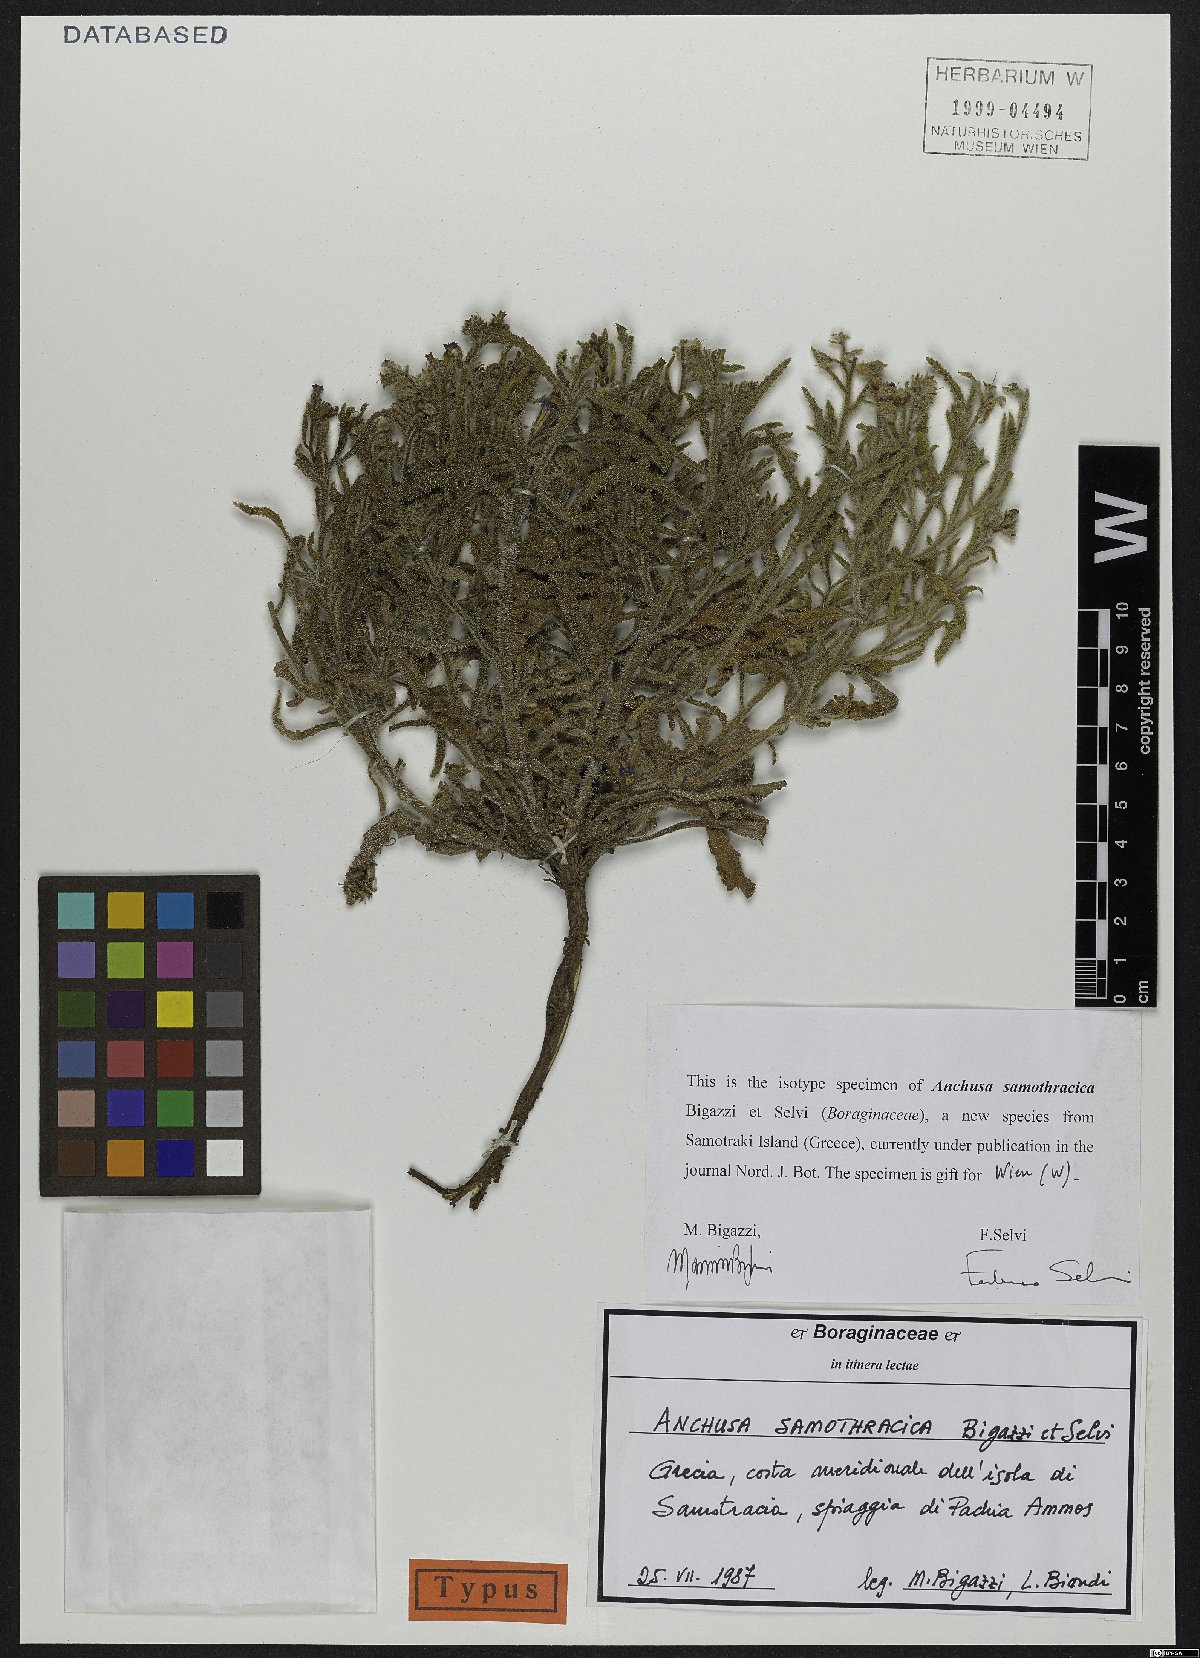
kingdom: Plantae
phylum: Tracheophyta
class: Magnoliopsida
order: Boraginales
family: Boraginaceae
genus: Anchusa
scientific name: Anchusa samothracica
